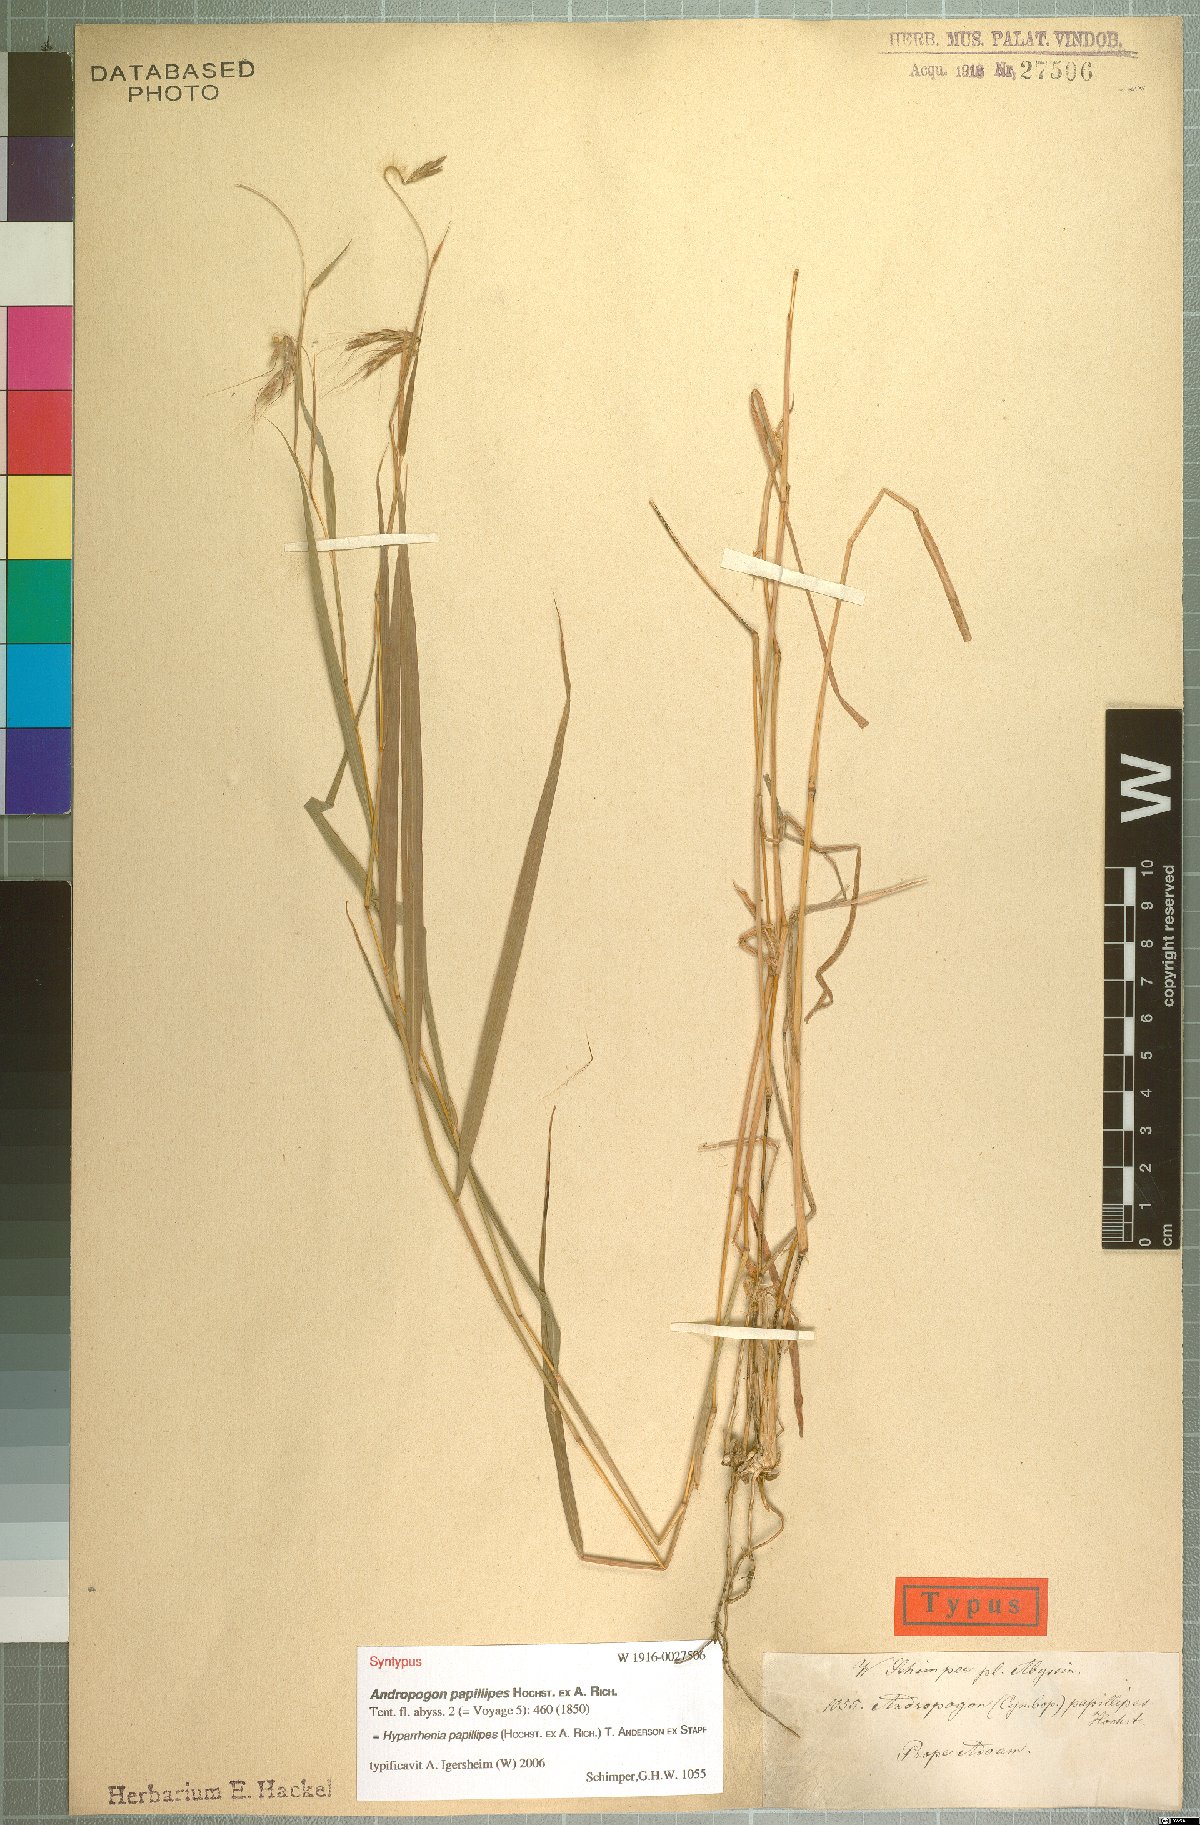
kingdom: Plantae
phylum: Tracheophyta
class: Liliopsida
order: Poales
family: Poaceae
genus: Hyparrhenia
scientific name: Hyparrhenia papillipes
